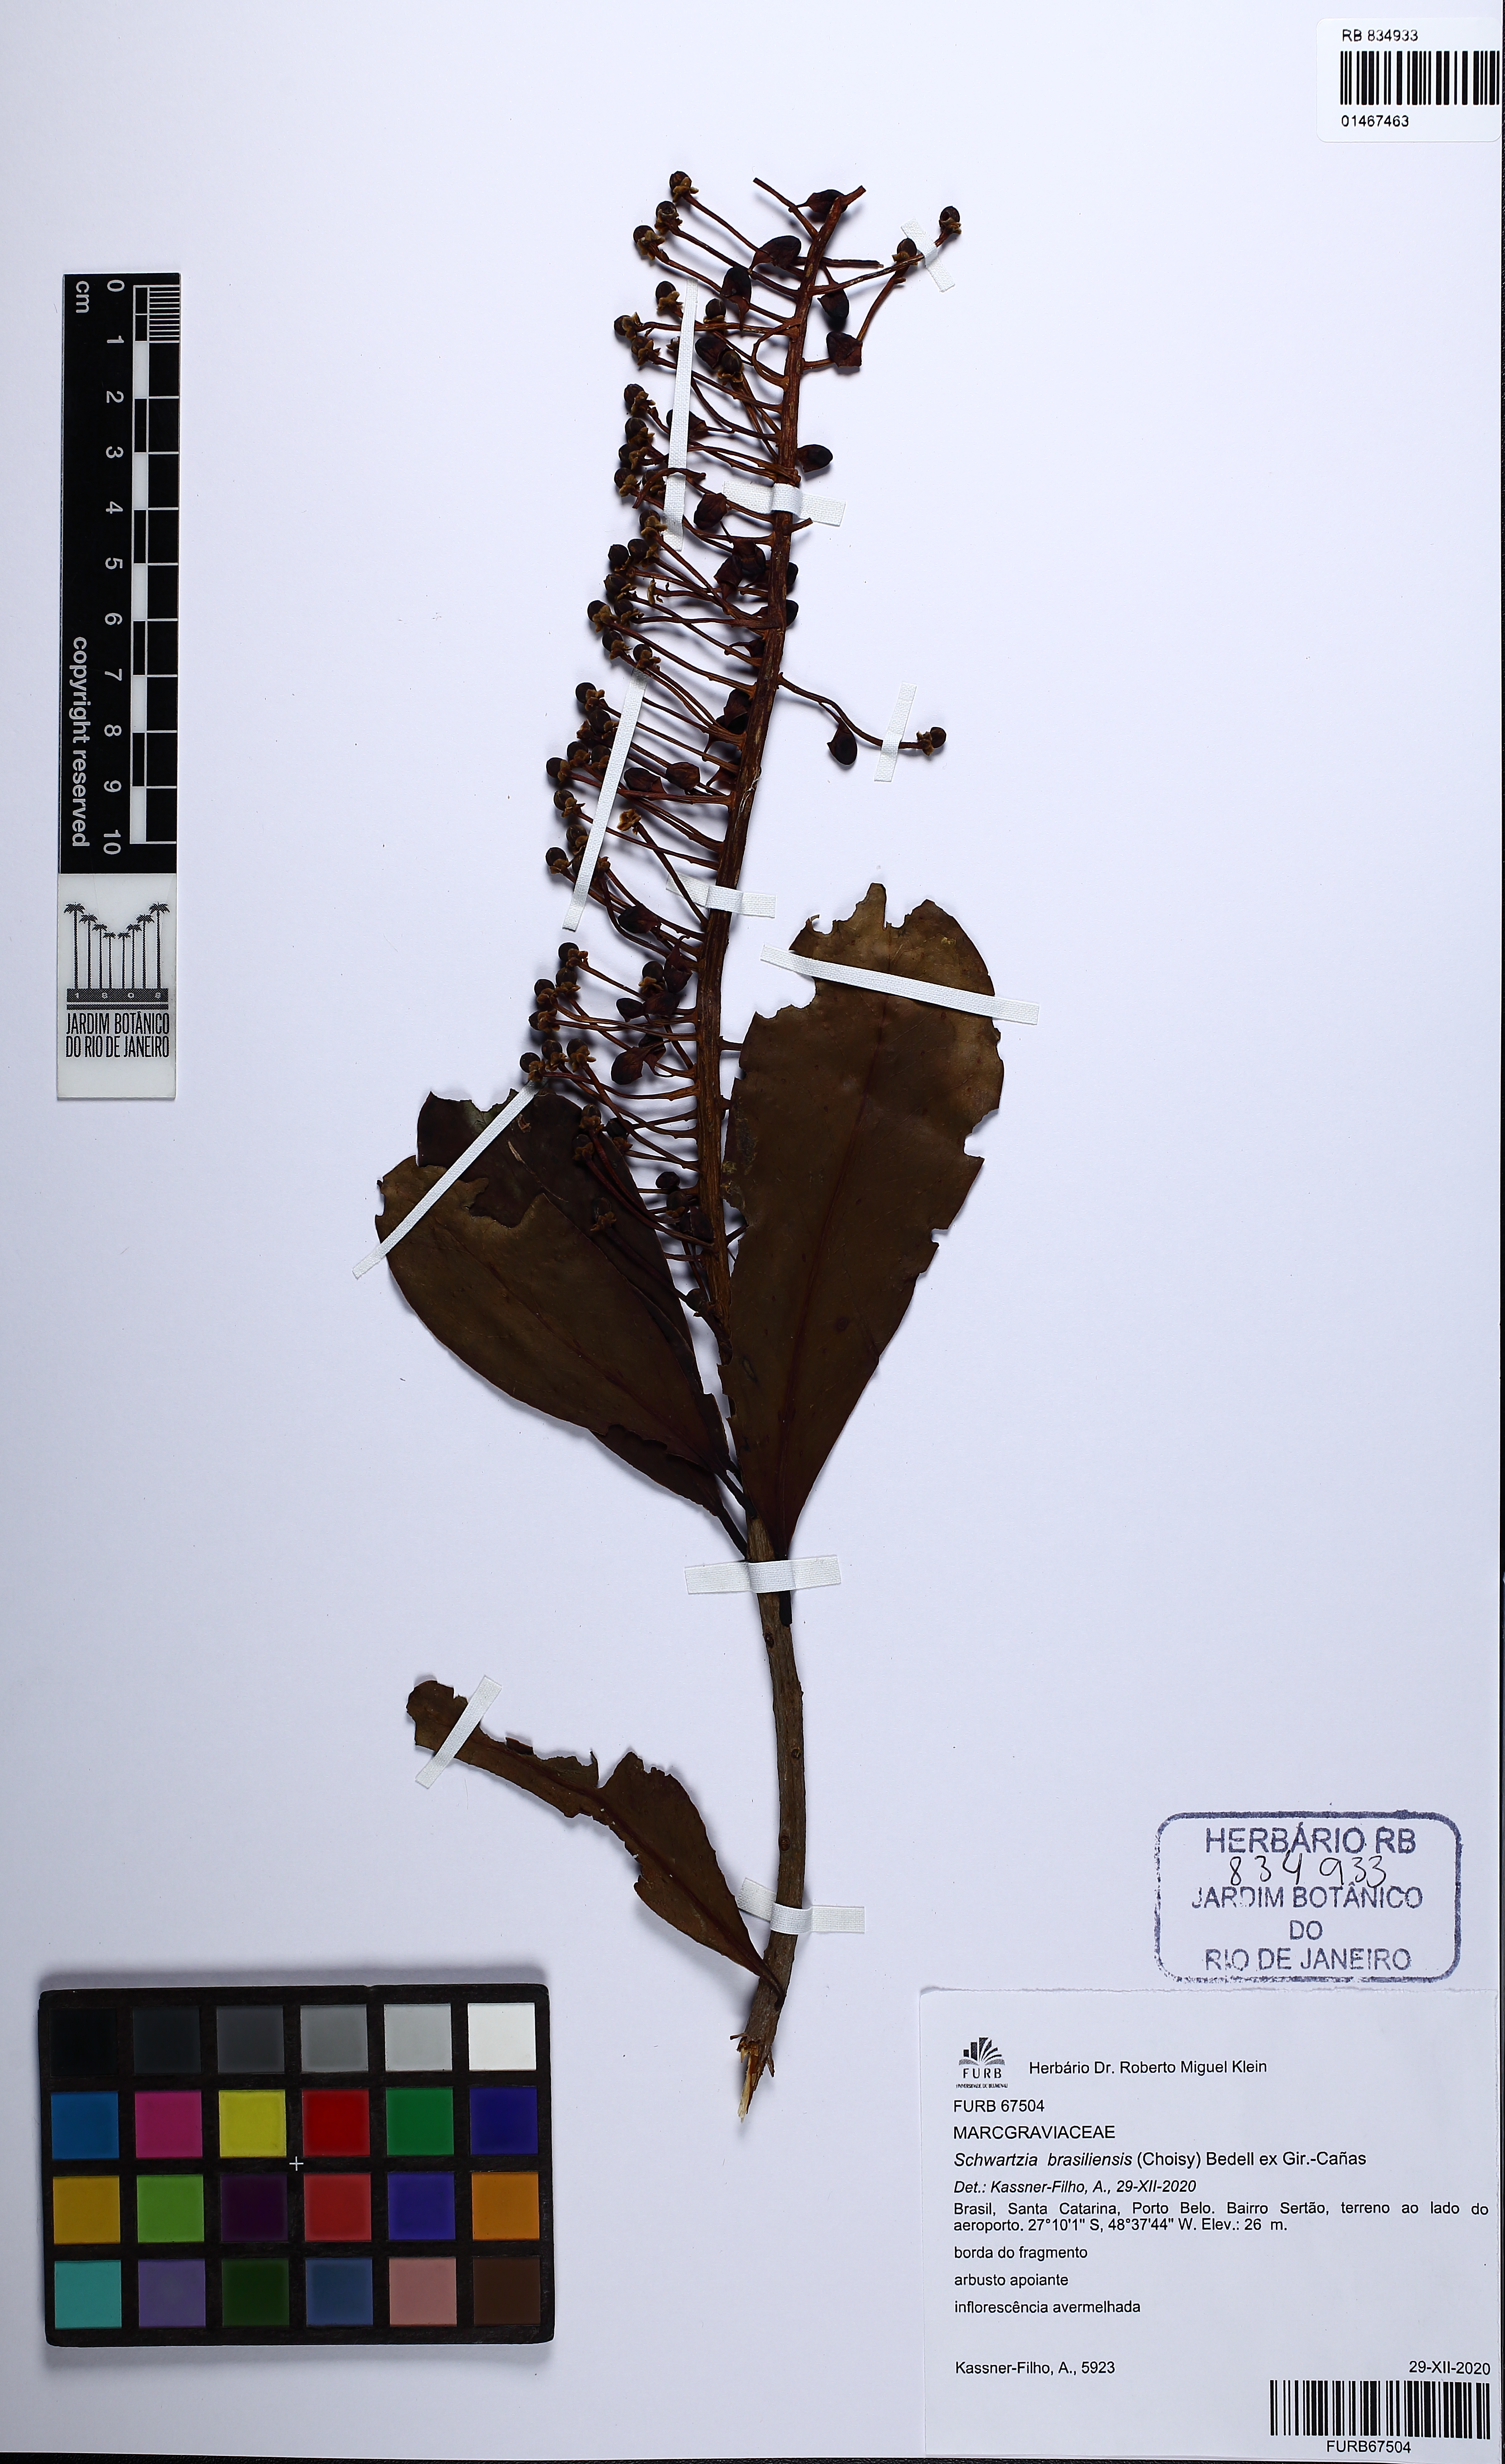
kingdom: Plantae
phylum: Tracheophyta
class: Magnoliopsida
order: Ericales
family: Marcgraviaceae
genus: Schwartzia
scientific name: Schwartzia brasiliensis
